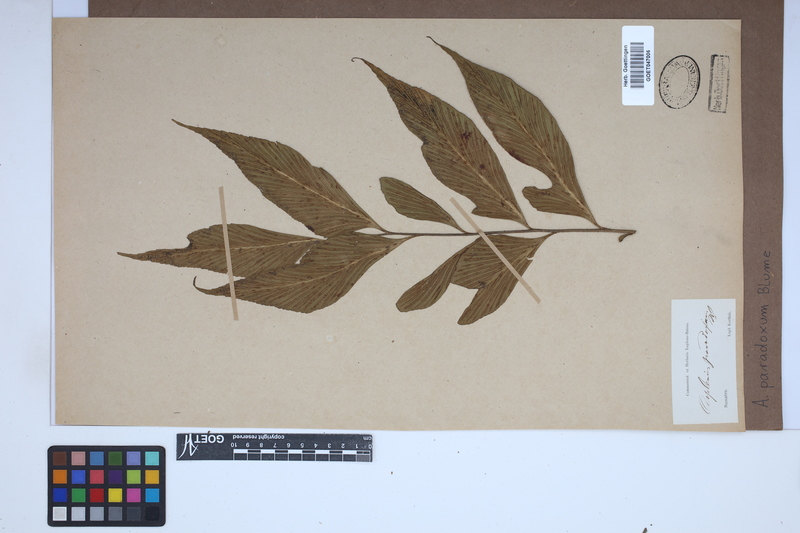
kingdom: Plantae
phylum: Tracheophyta
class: Polypodiopsida
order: Polypodiales
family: Aspleniaceae
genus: Asplenium
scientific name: Asplenium falcatum
